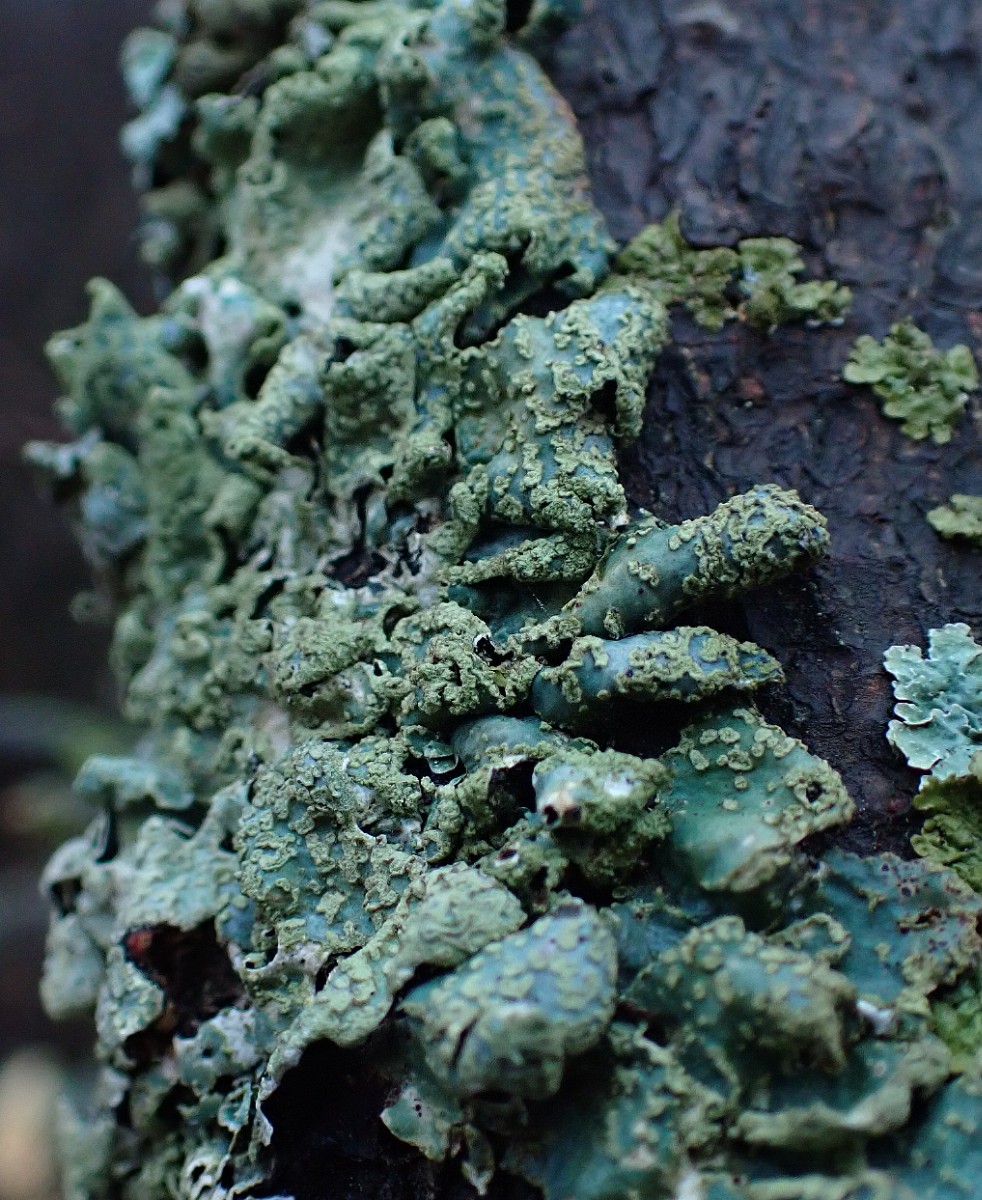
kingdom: Fungi
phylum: Ascomycota
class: Lecanoromycetes
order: Lecanorales
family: Parmeliaceae
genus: Parmelia
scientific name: Parmelia sulcata
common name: rynket skållav
